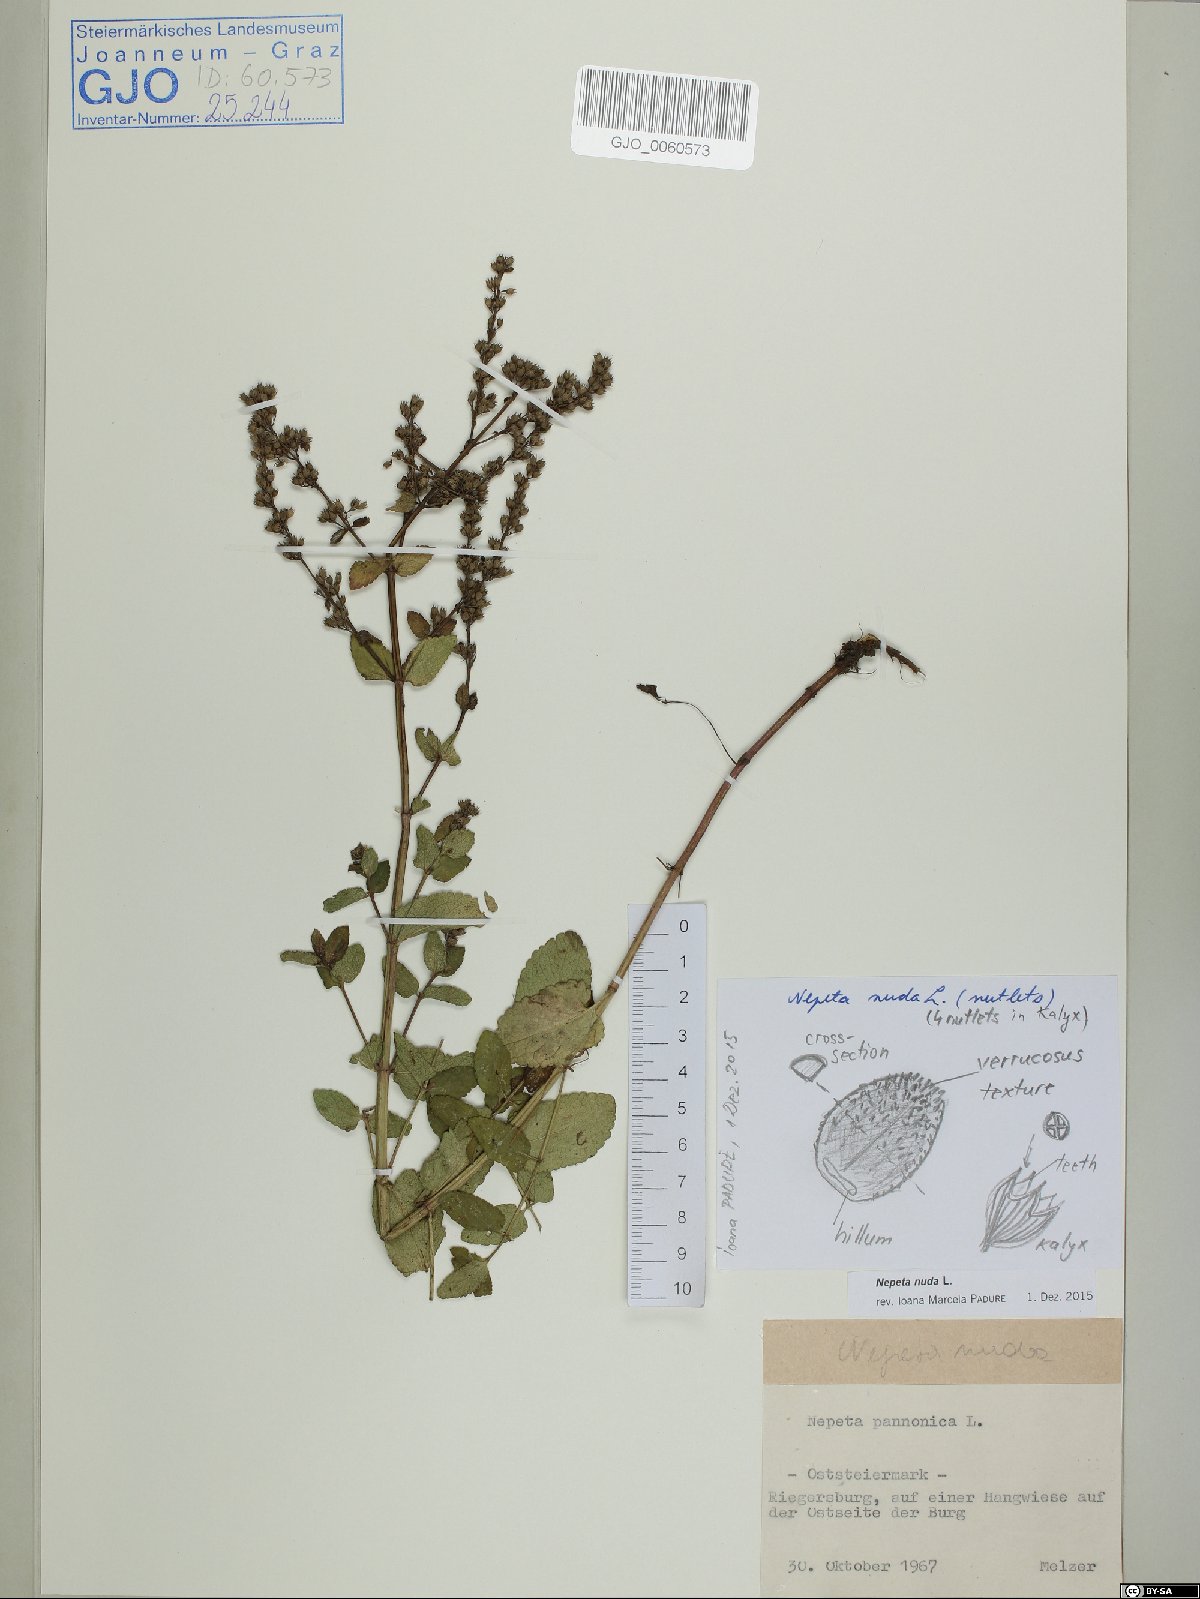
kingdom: Plantae
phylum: Tracheophyta
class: Magnoliopsida
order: Lamiales
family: Lamiaceae
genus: Nepeta
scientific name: Nepeta nuda
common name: Hairless catmint
